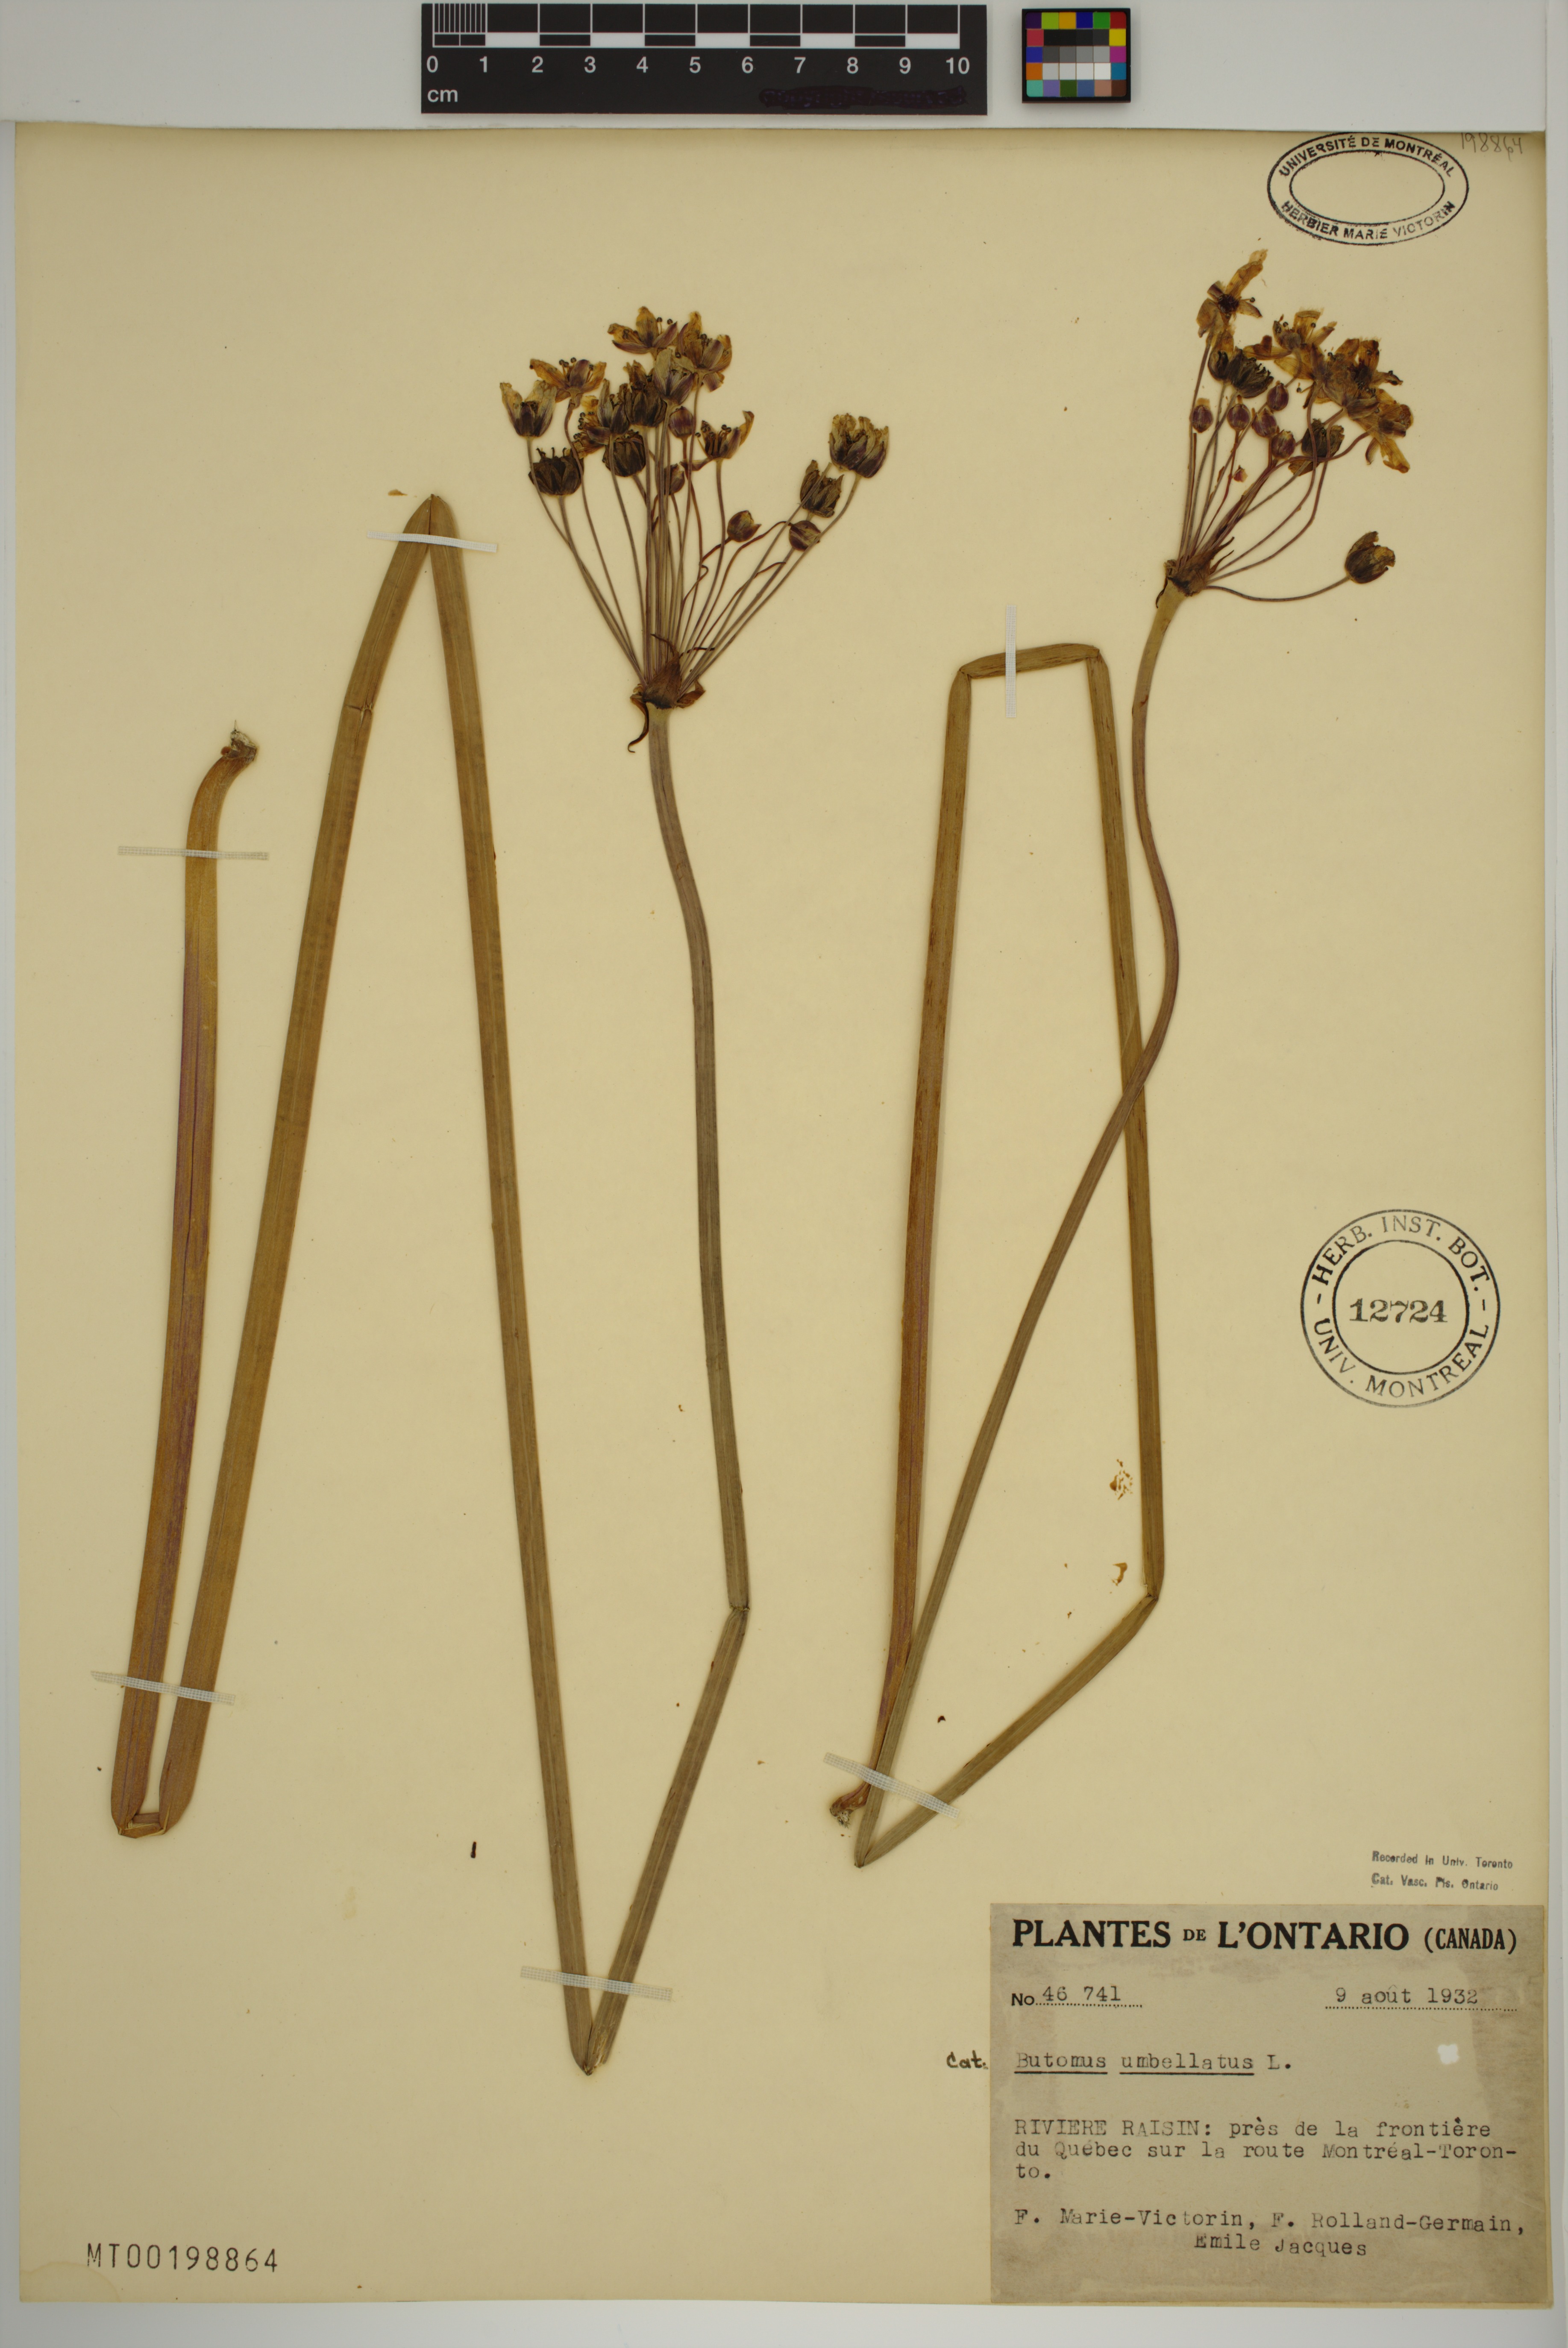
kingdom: Plantae
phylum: Tracheophyta
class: Liliopsida
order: Alismatales
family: Butomaceae
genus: Butomus
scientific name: Butomus umbellatus
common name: Flowering-rush
